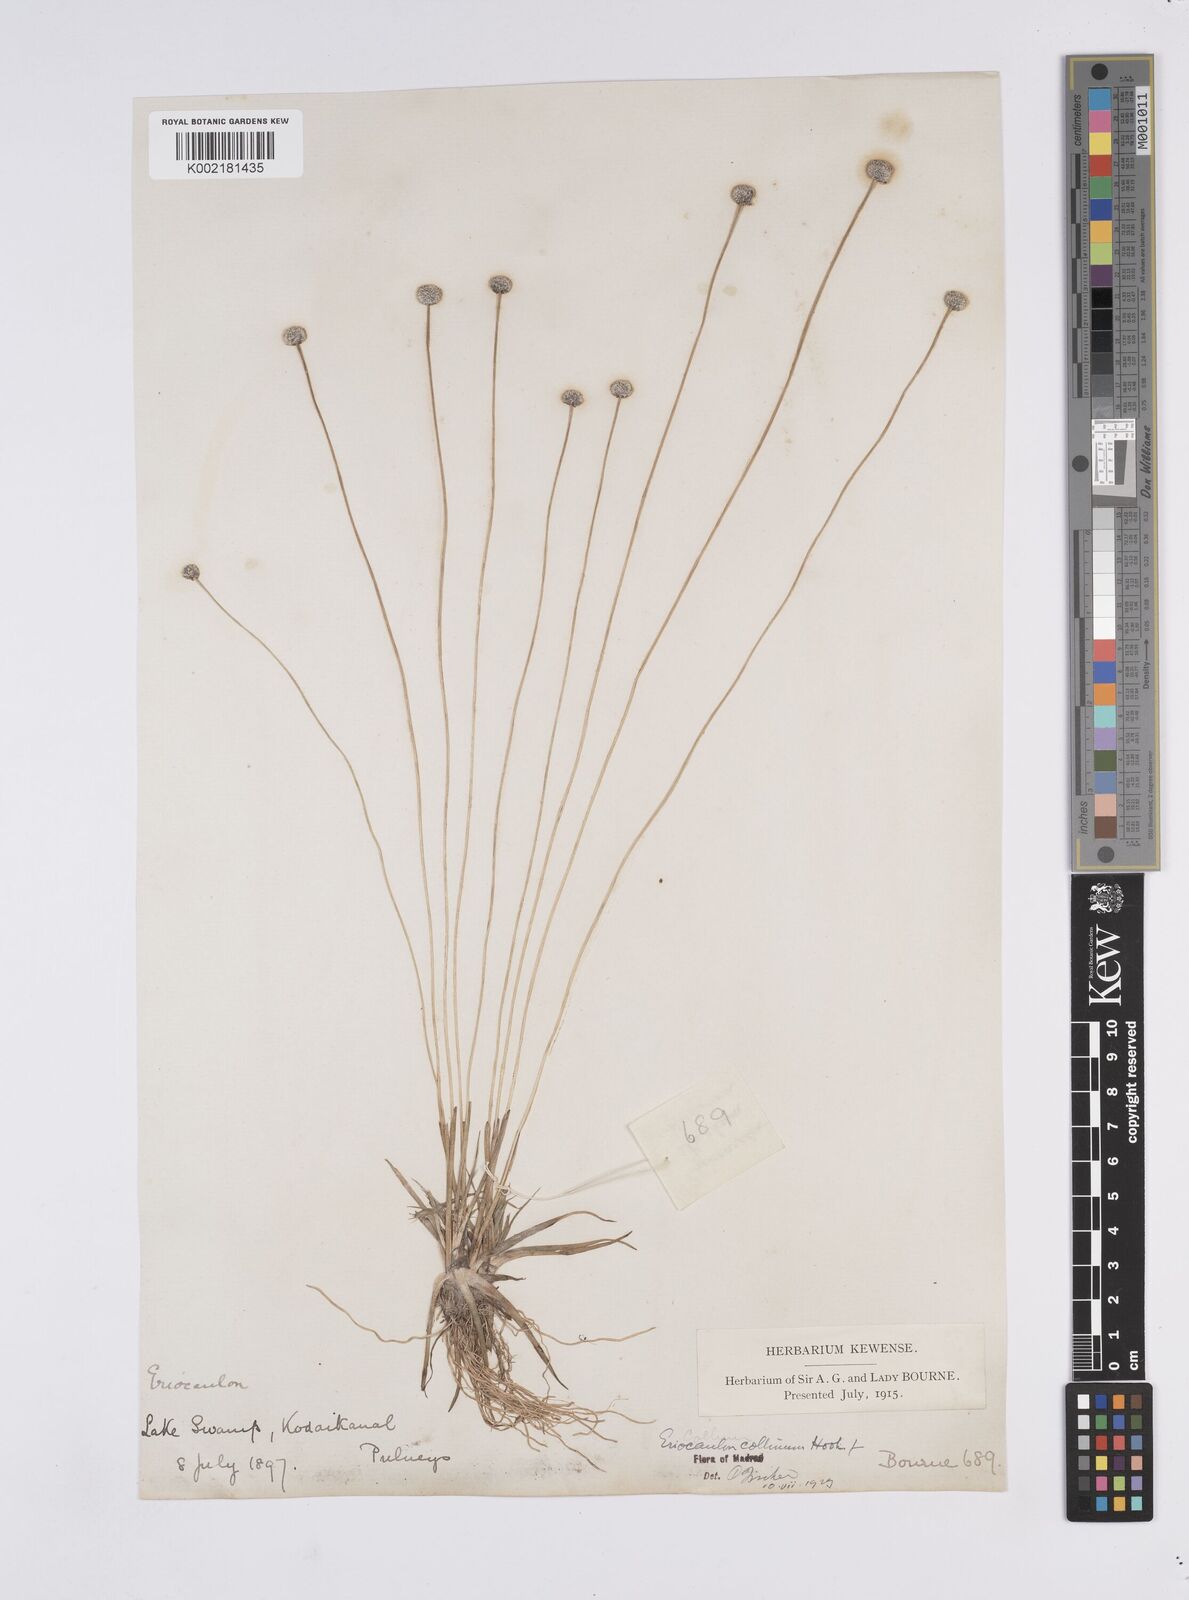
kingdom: Plantae
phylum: Tracheophyta
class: Liliopsida
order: Poales
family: Eriocaulaceae
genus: Eriocaulon
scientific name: Eriocaulon odoratum
